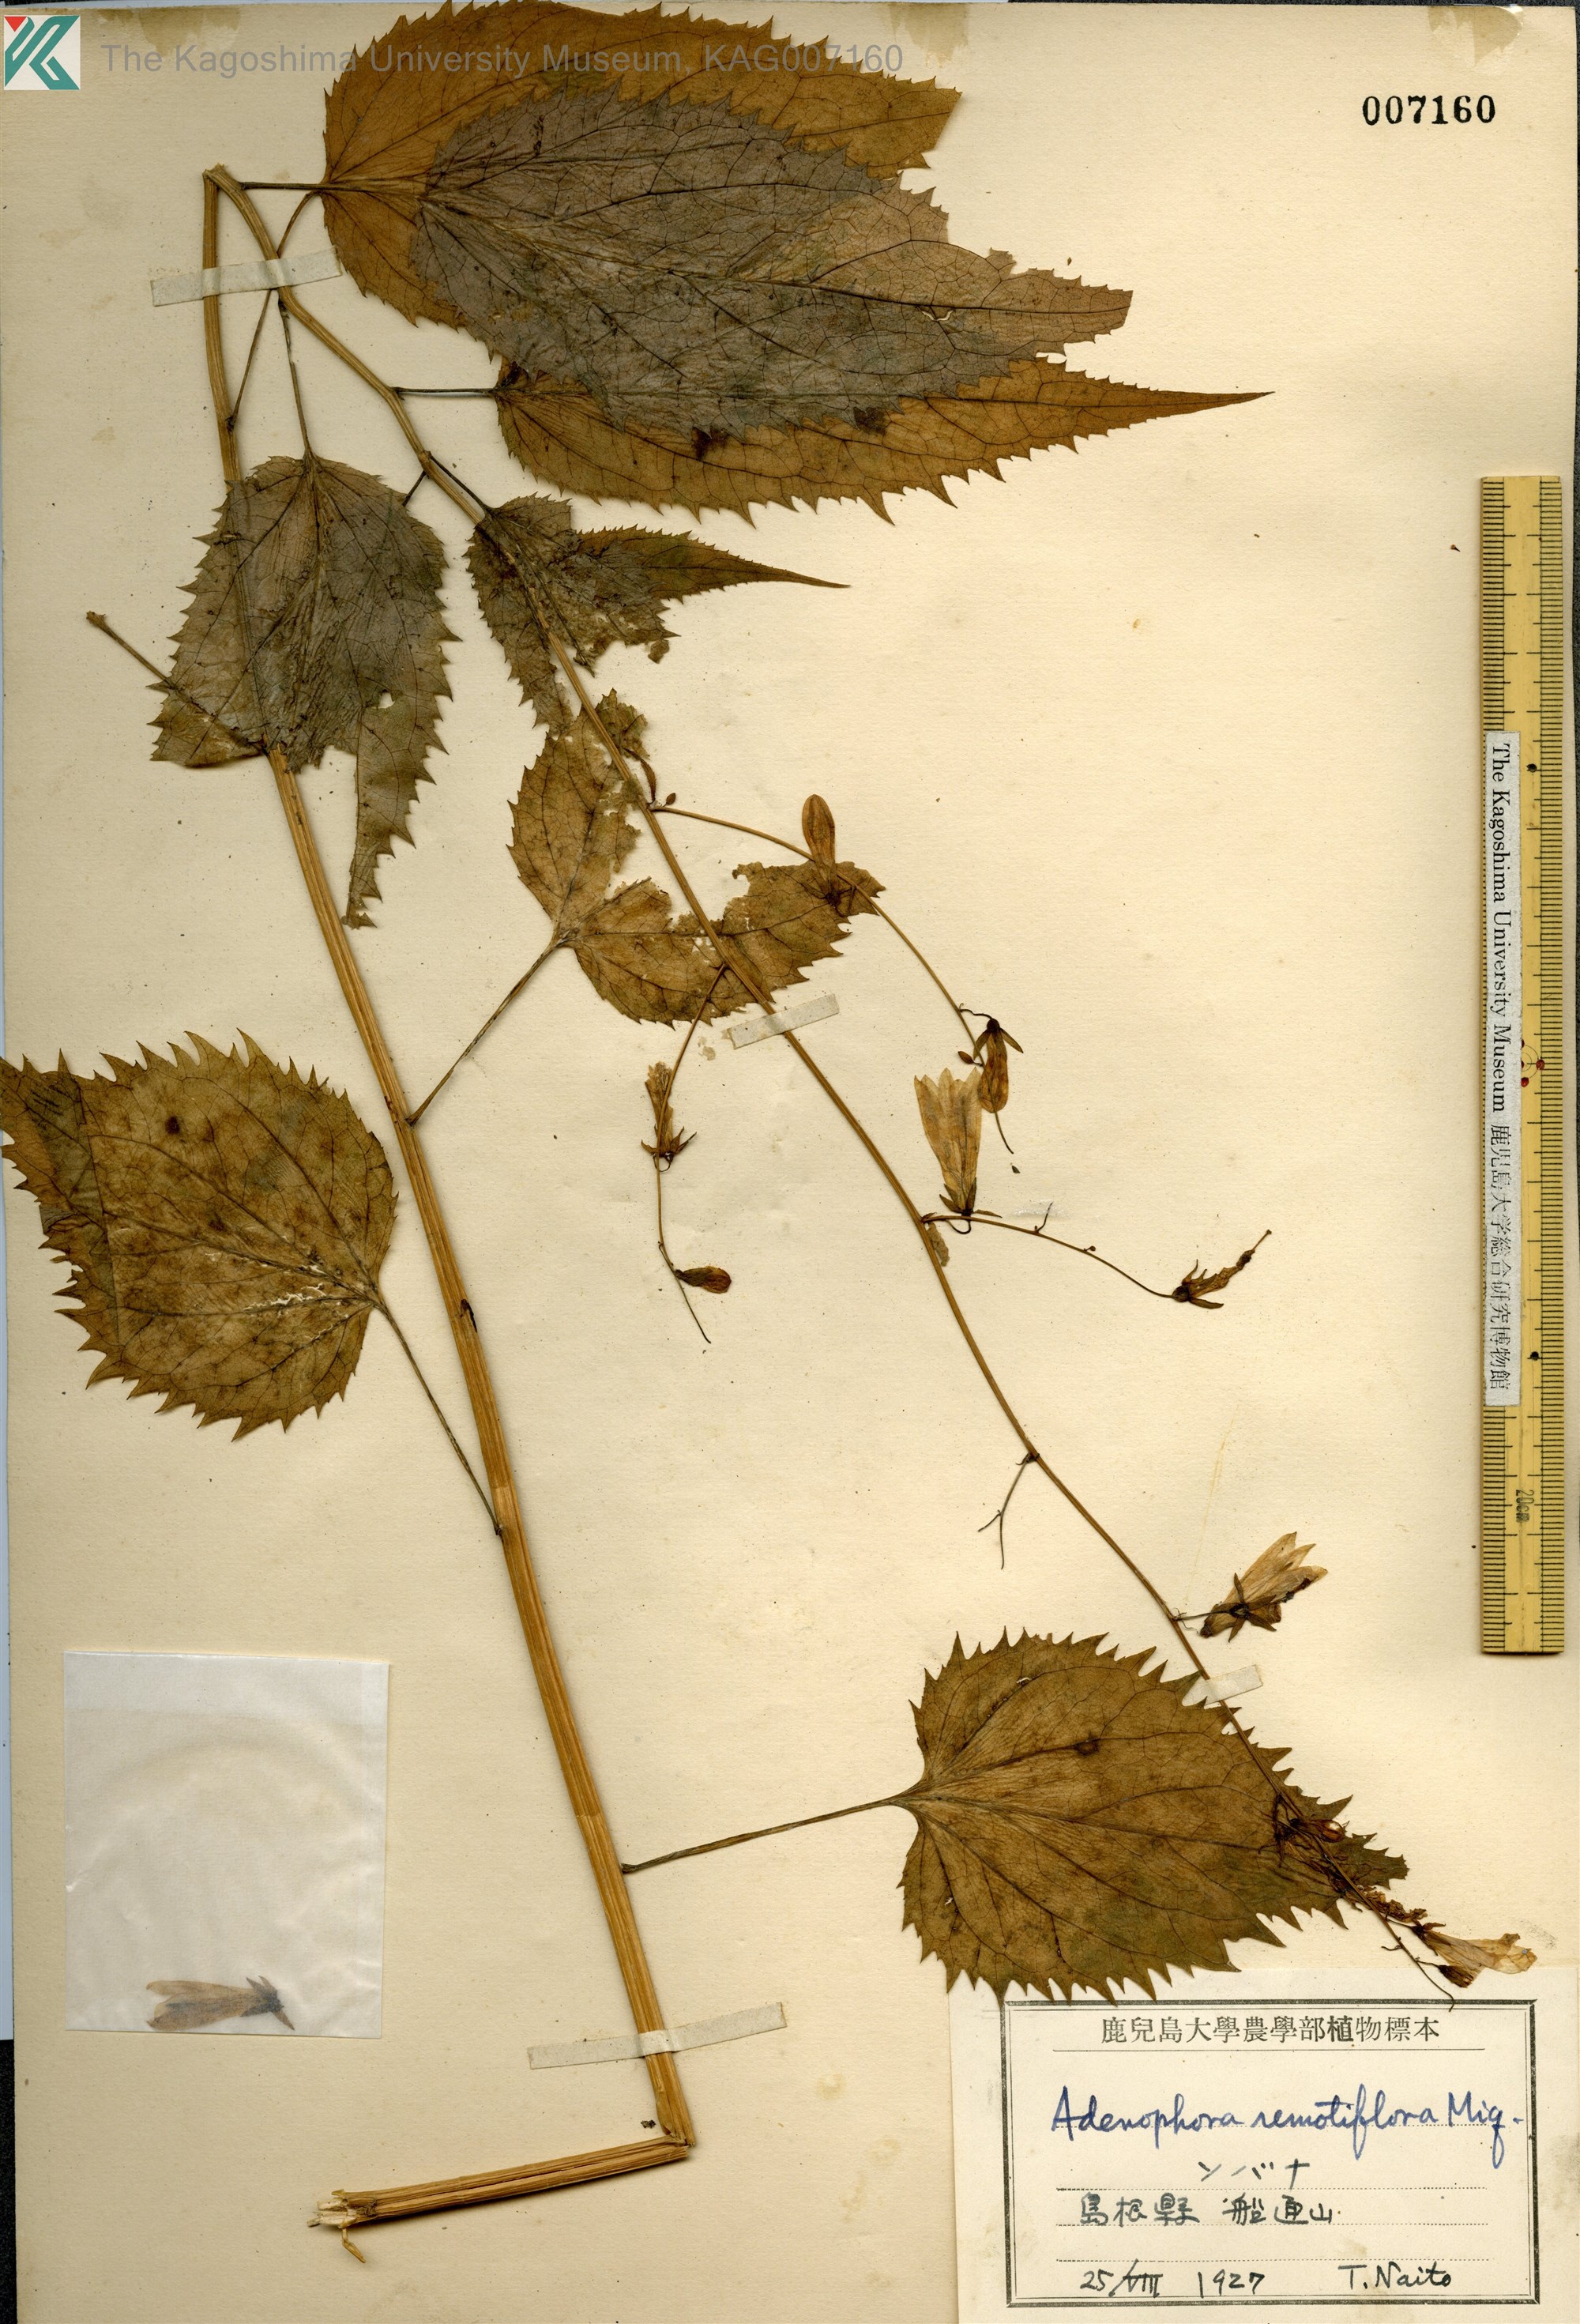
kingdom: Plantae
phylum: Tracheophyta
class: Magnoliopsida
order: Asterales
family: Campanulaceae
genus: Adenophora
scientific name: Adenophora remotiflora
